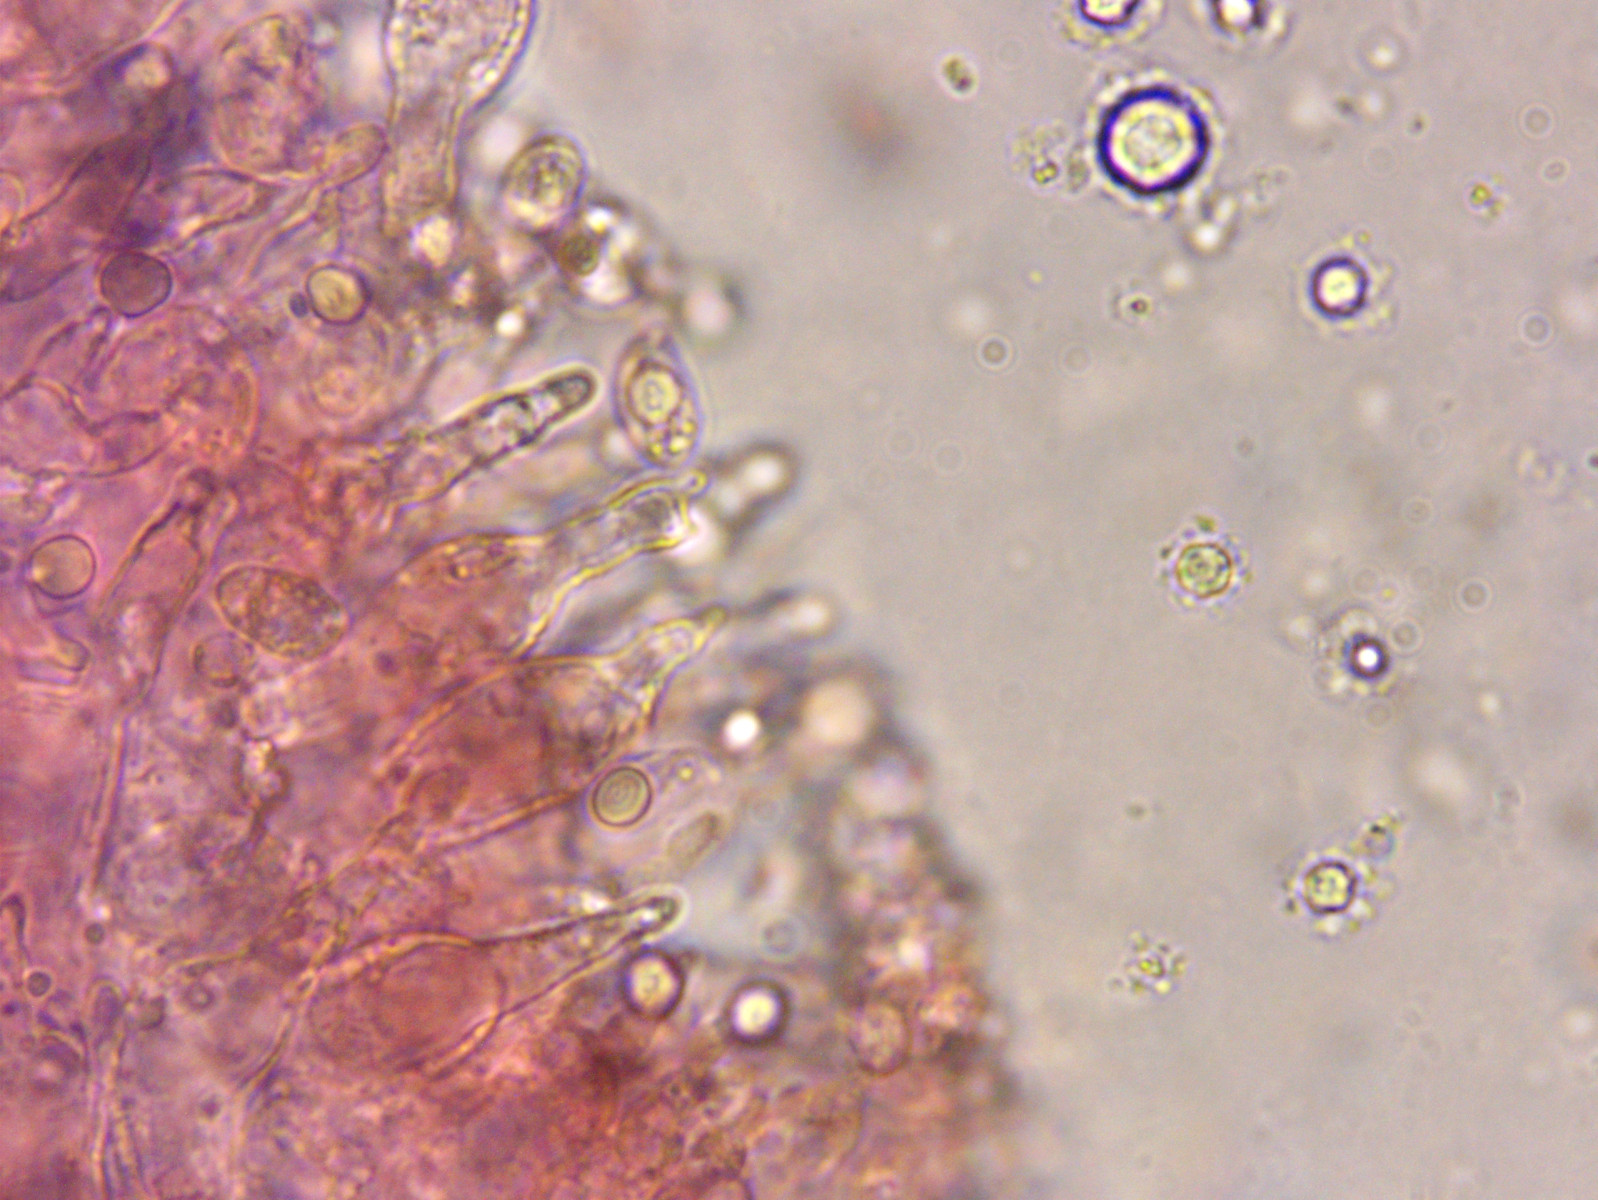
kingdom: Fungi
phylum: Basidiomycota
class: Agaricomycetes
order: Agaricales
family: Mycenaceae
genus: Mycena
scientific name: Mycena olivaceomarginata
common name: brunægget huesvamp
